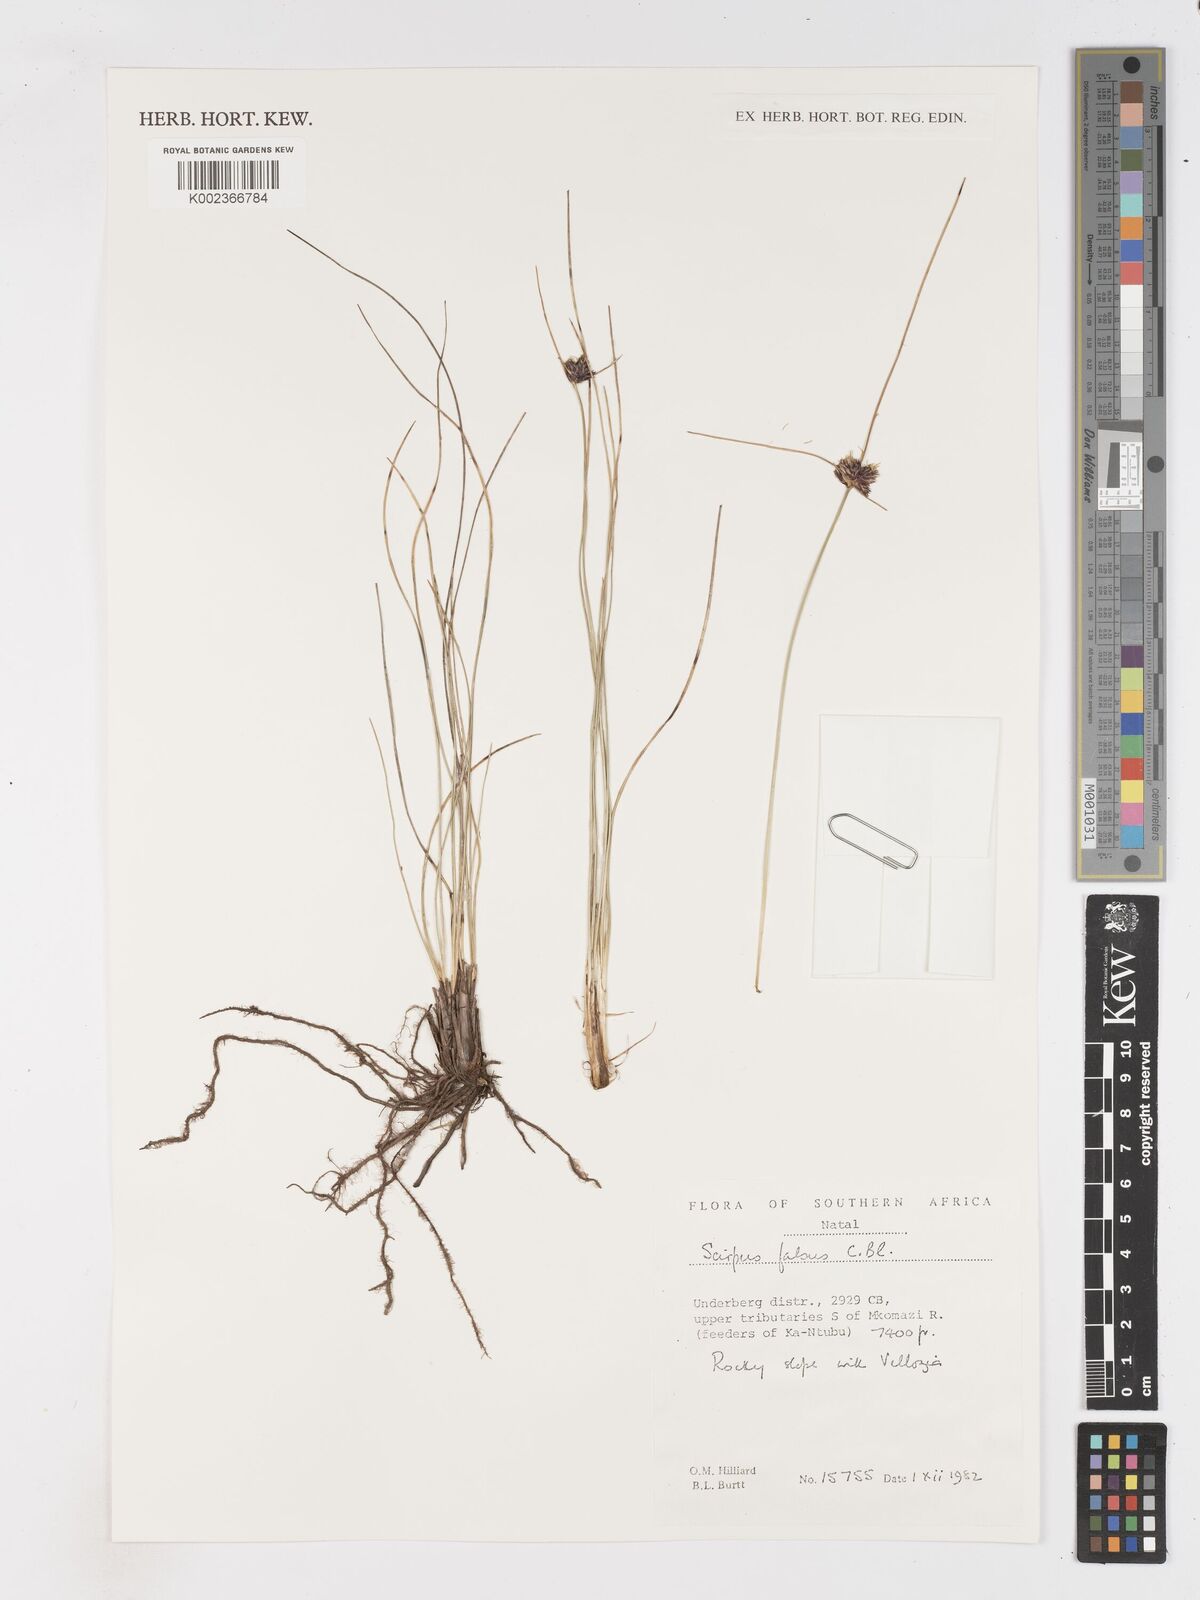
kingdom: Plantae
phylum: Tracheophyta
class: Liliopsida
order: Poales
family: Cyperaceae
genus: Dracoscirpoides
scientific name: Dracoscirpoides falsa
